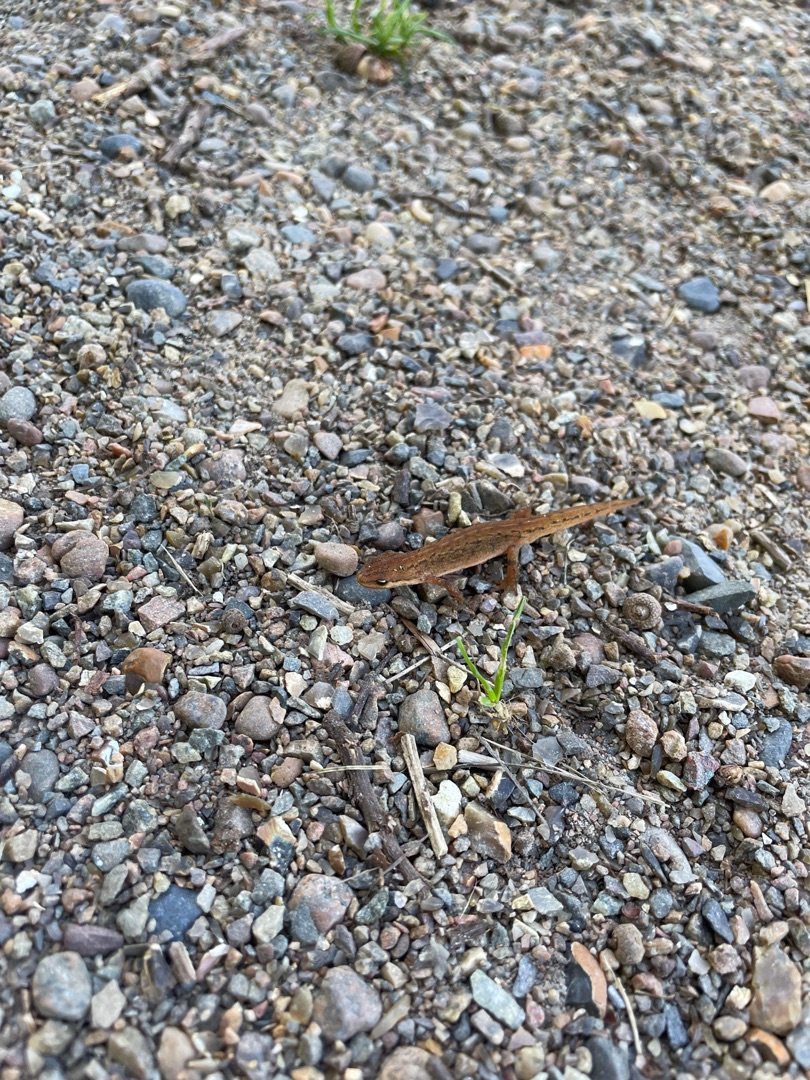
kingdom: Animalia
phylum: Chordata
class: Amphibia
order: Caudata
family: Salamandridae
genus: Lissotriton
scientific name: Lissotriton vulgaris
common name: Lille vandsalamander
